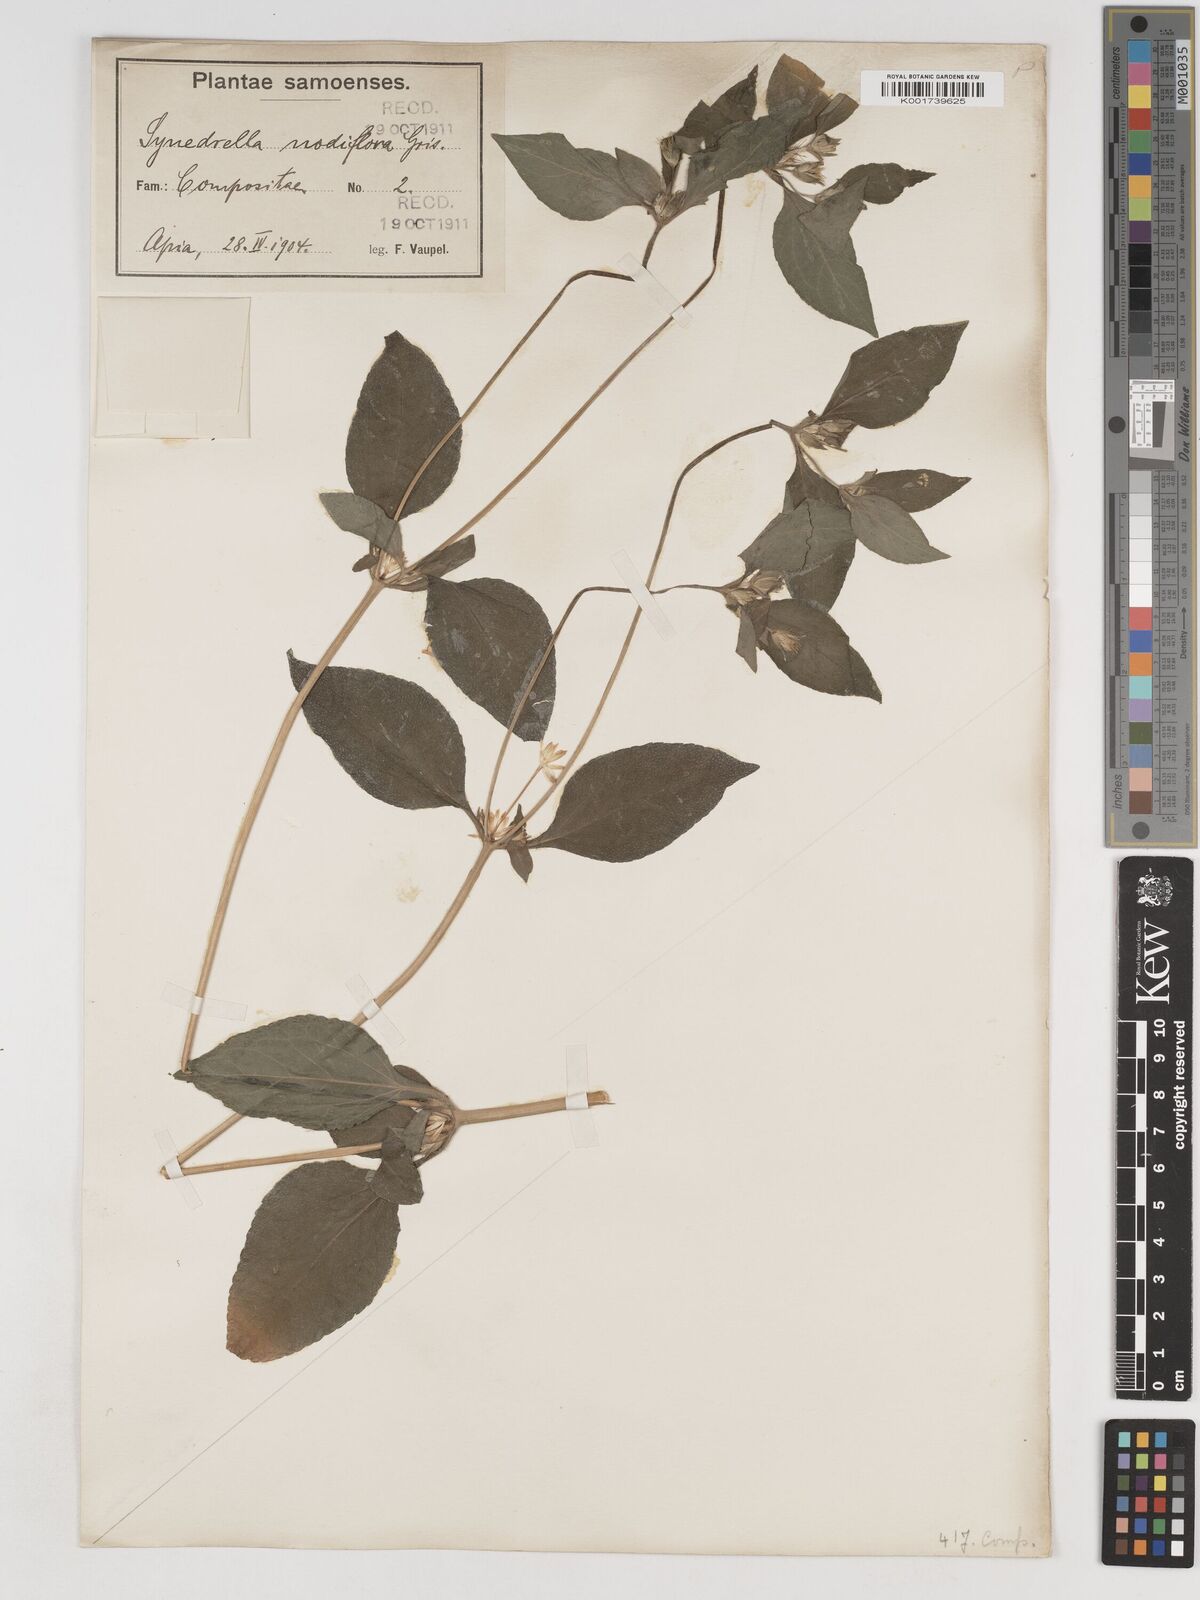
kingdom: Plantae
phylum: Tracheophyta
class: Magnoliopsida
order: Asterales
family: Asteraceae
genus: Synedrella
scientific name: Synedrella nodiflora
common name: Nodeweed
